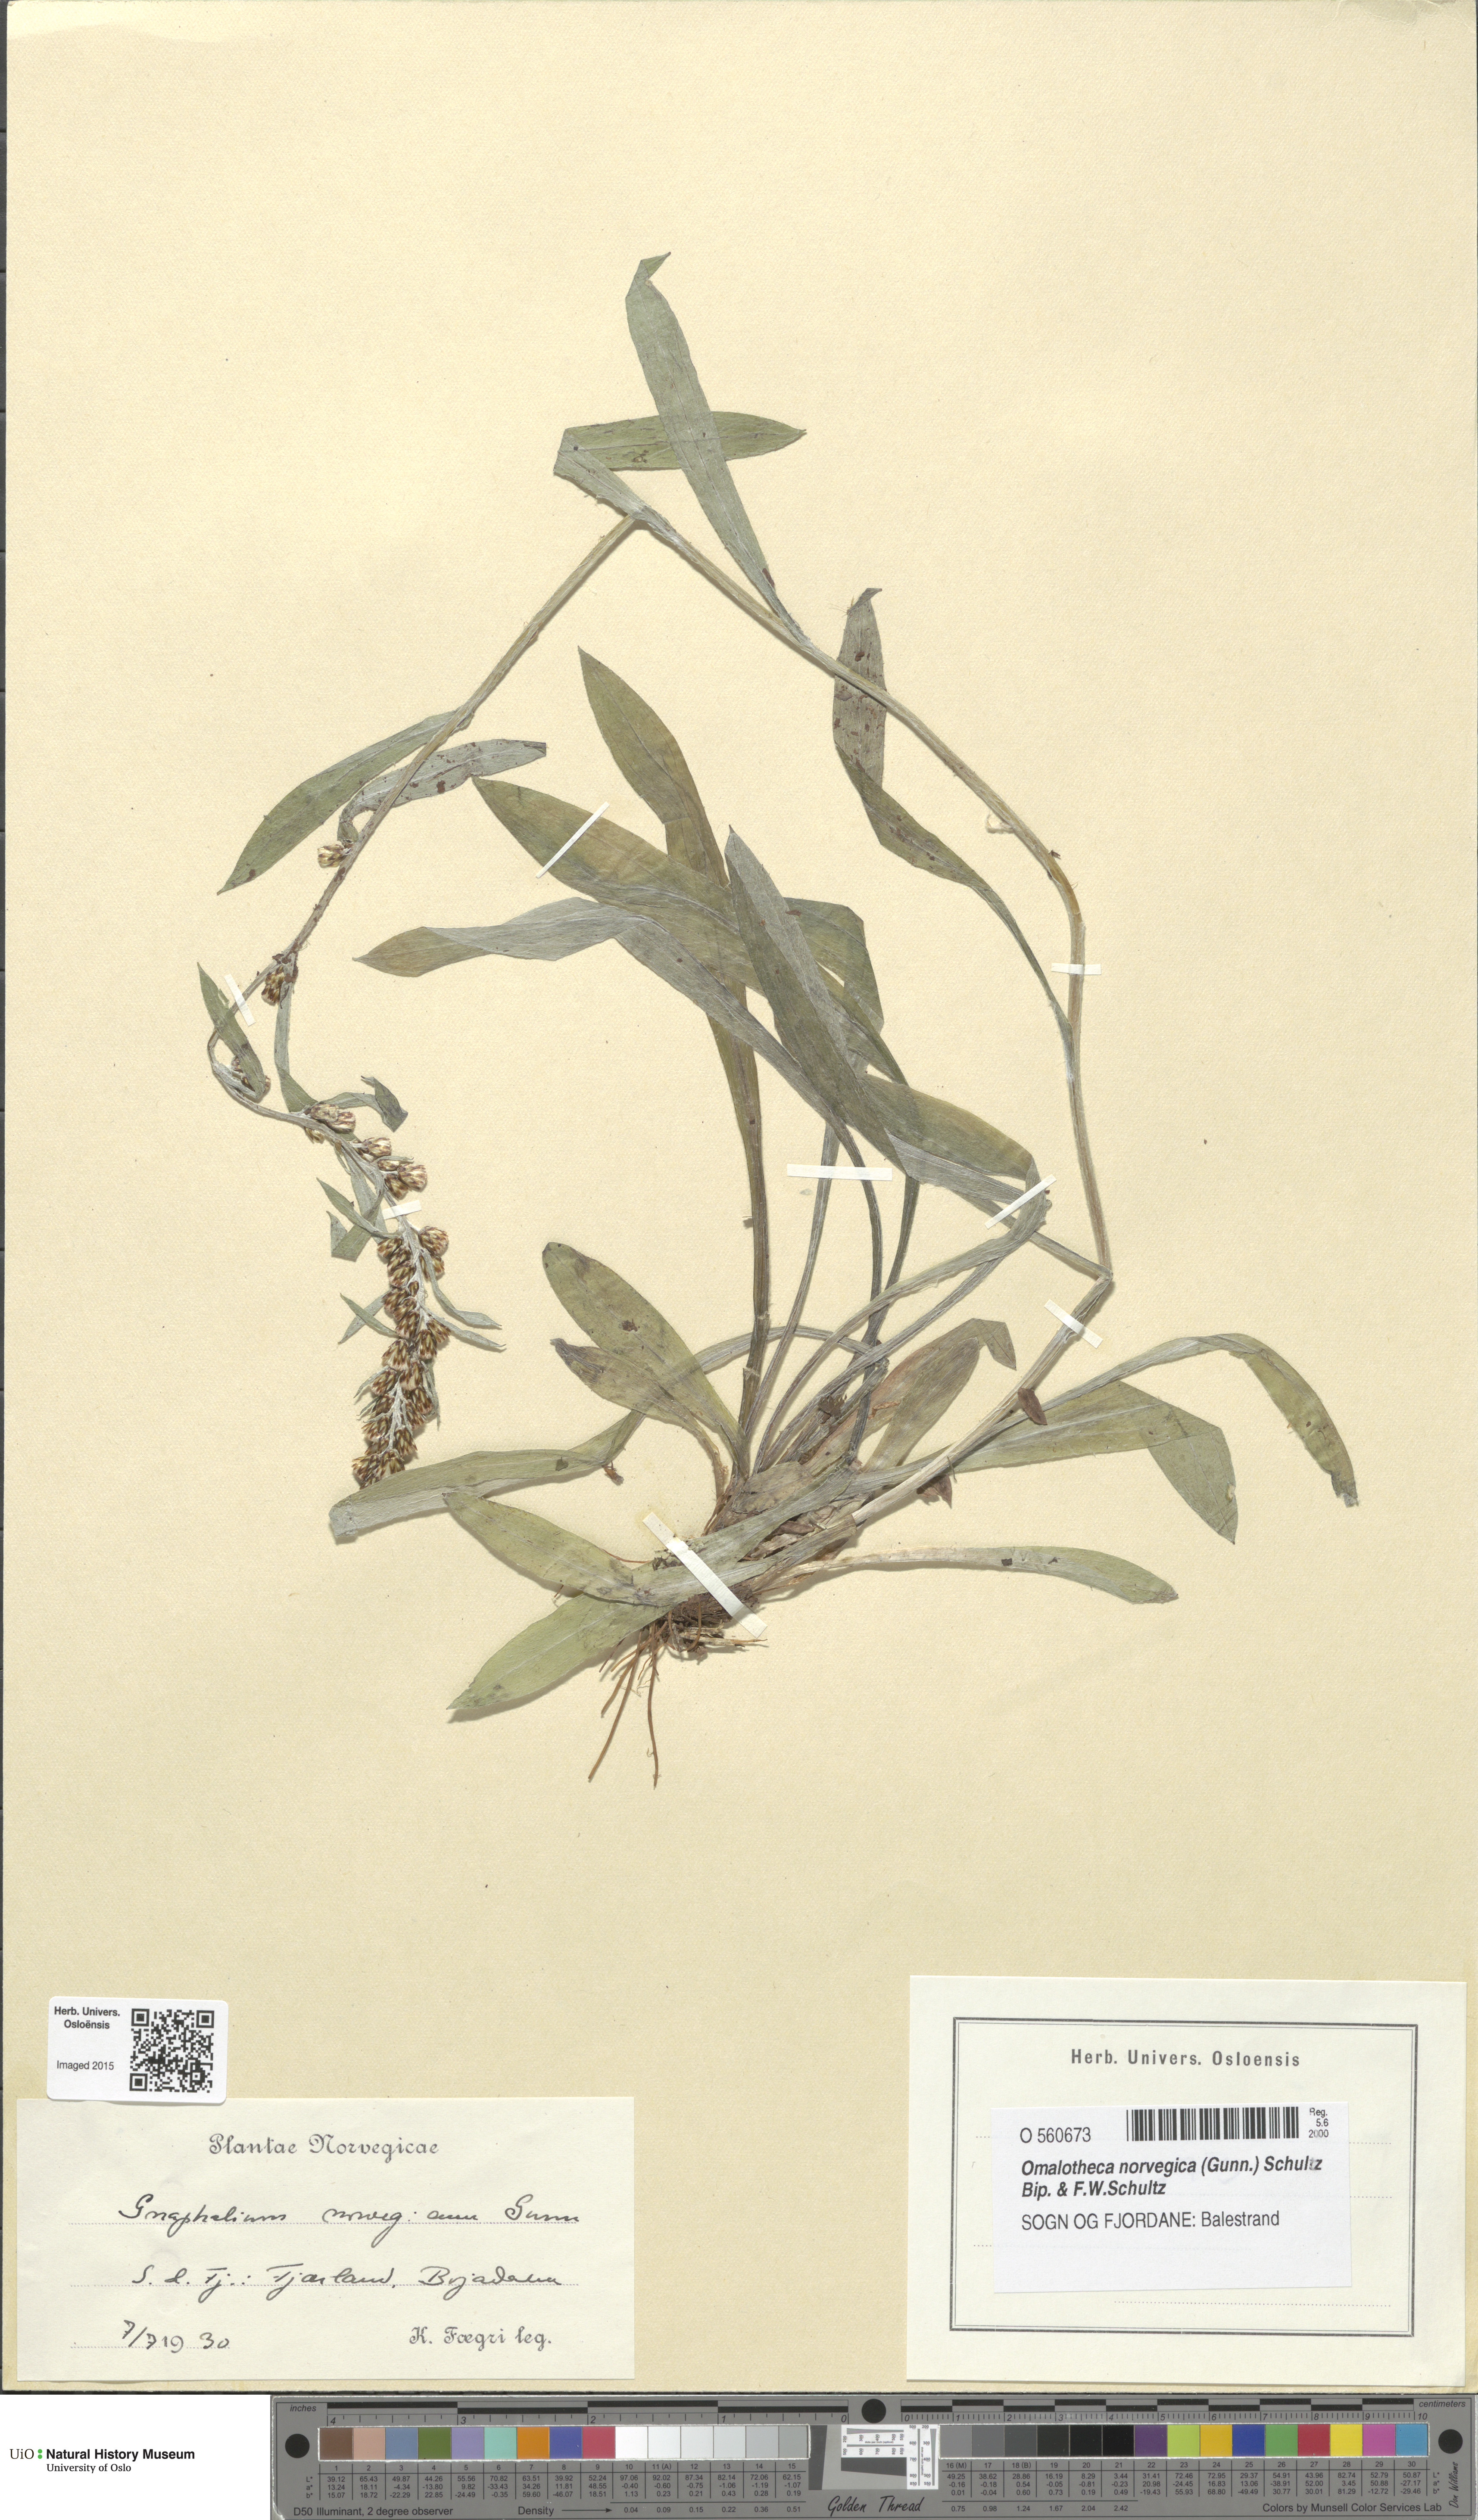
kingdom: Plantae
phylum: Tracheophyta
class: Magnoliopsida
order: Asterales
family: Asteraceae
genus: Omalotheca
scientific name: Omalotheca norvegica
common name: Norwegian arctic-cudweed
